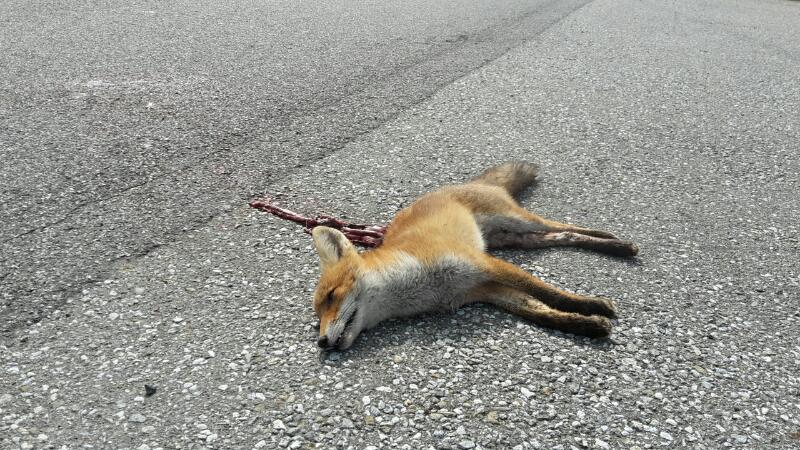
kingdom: Animalia
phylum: Chordata
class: Mammalia
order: Carnivora
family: Canidae
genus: Vulpes
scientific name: Vulpes vulpes
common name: Red fox
